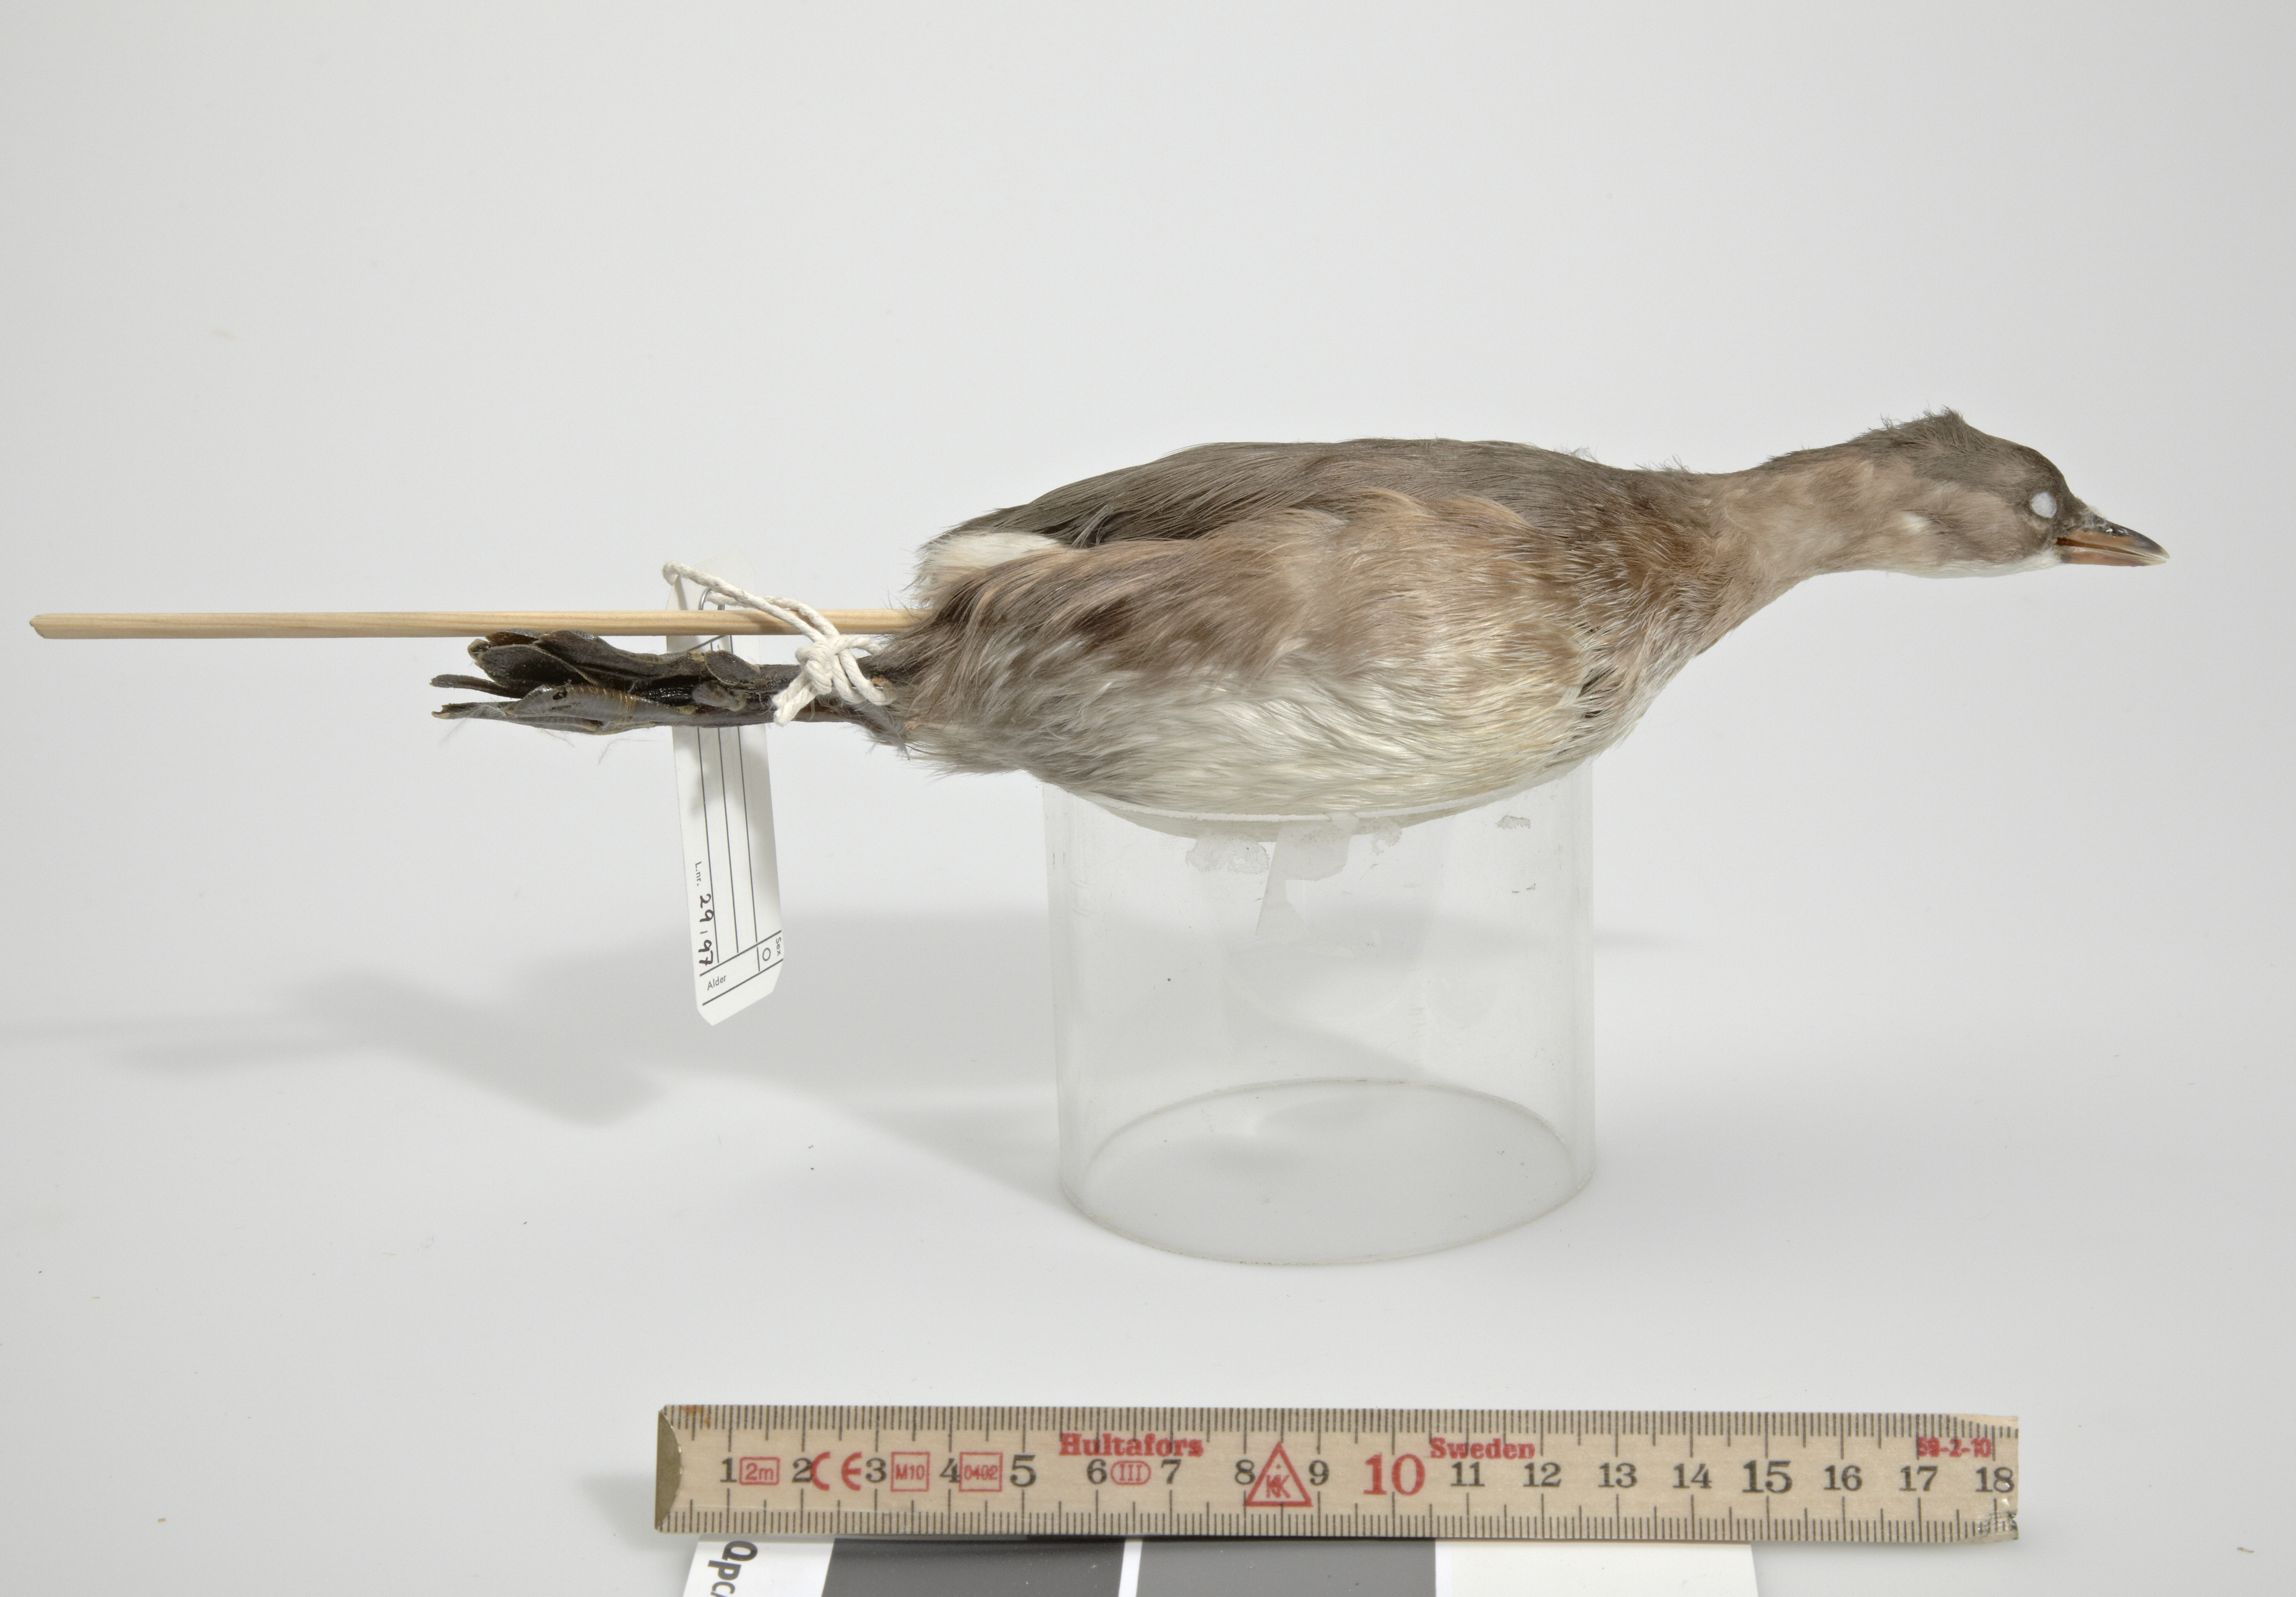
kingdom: Animalia
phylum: Chordata
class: Aves
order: Podicipediformes
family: Podicipedidae
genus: Tachybaptus
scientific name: Tachybaptus ruficollis
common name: Little grebe
